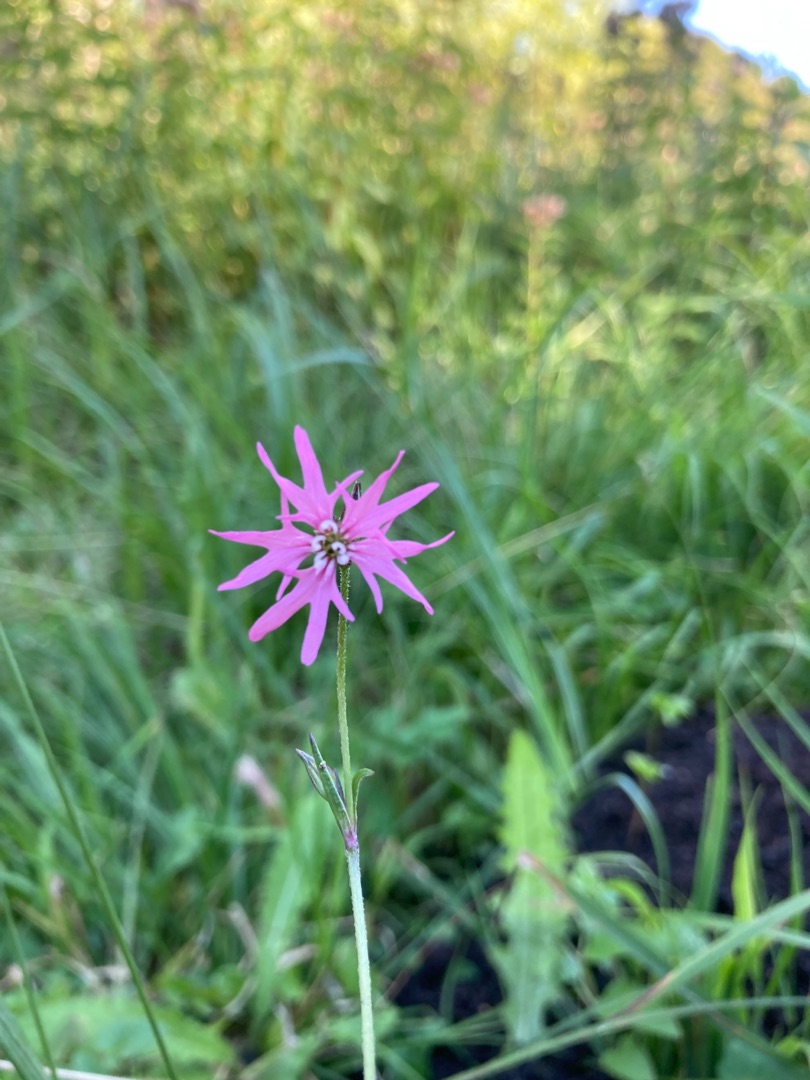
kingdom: Plantae
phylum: Tracheophyta
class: Magnoliopsida
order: Caryophyllales
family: Caryophyllaceae
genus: Silene
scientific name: Silene flos-cuculi
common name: Trævlekrone
